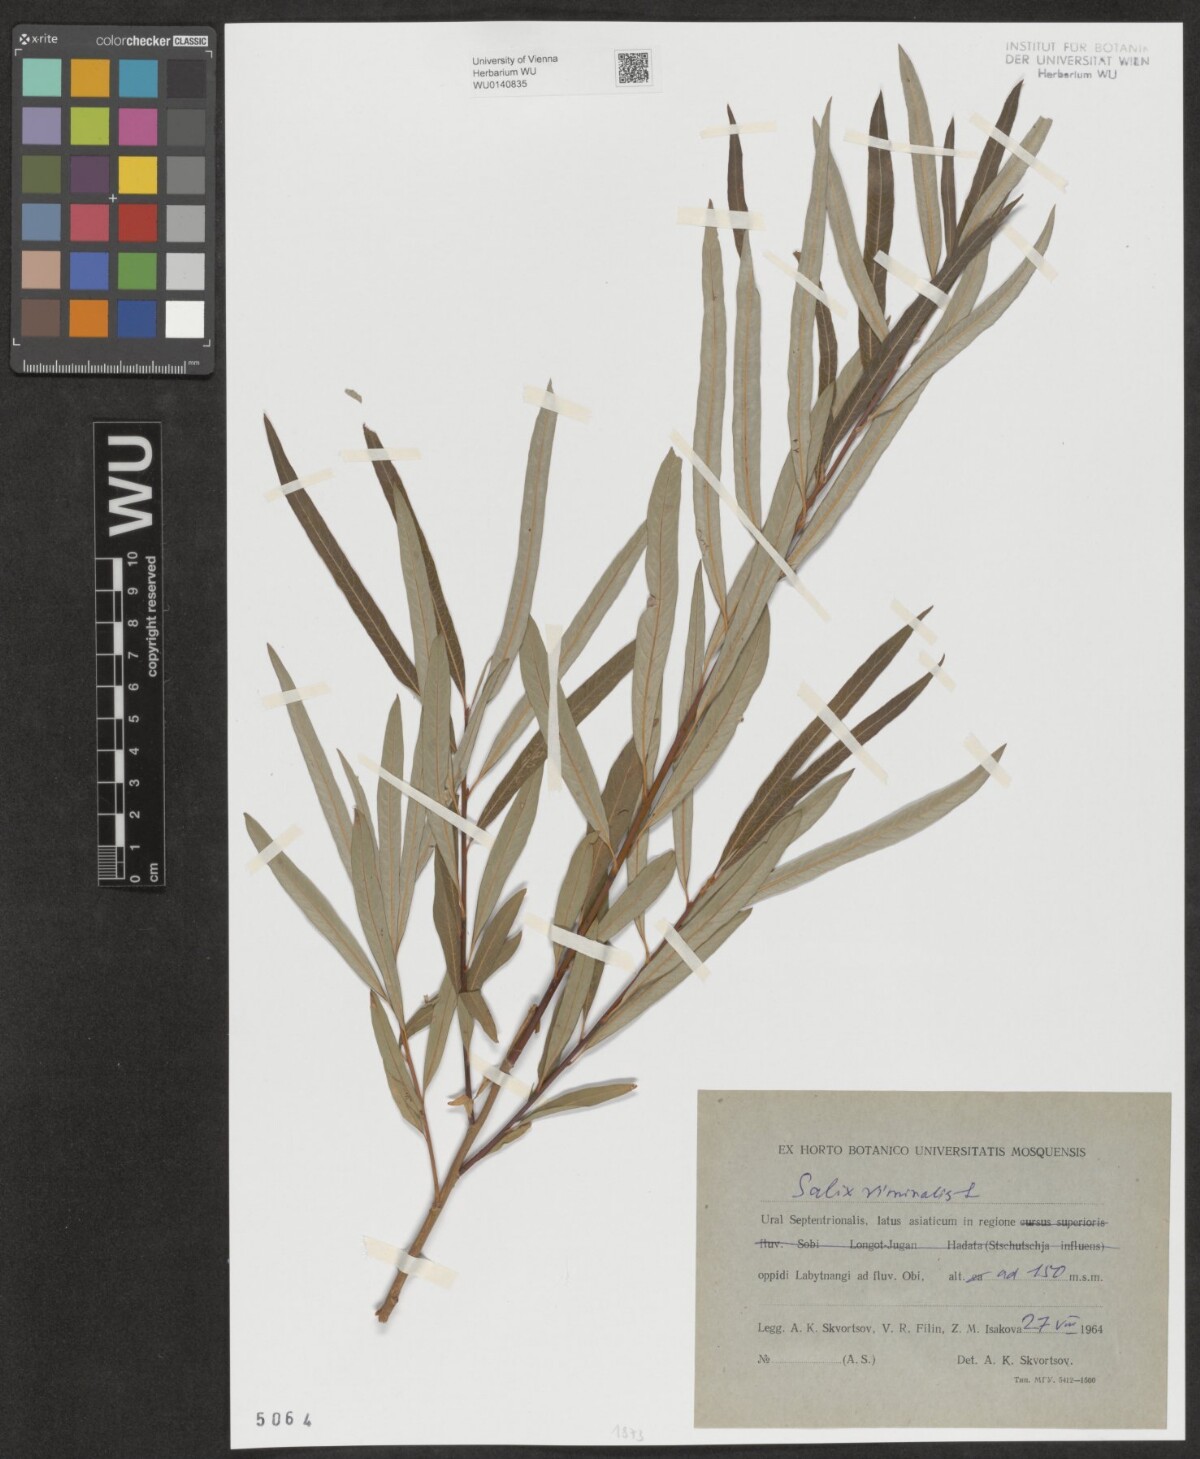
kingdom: Plantae
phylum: Tracheophyta
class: Magnoliopsida
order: Malpighiales
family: Salicaceae
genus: Salix
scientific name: Salix viminalis
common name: Osier
